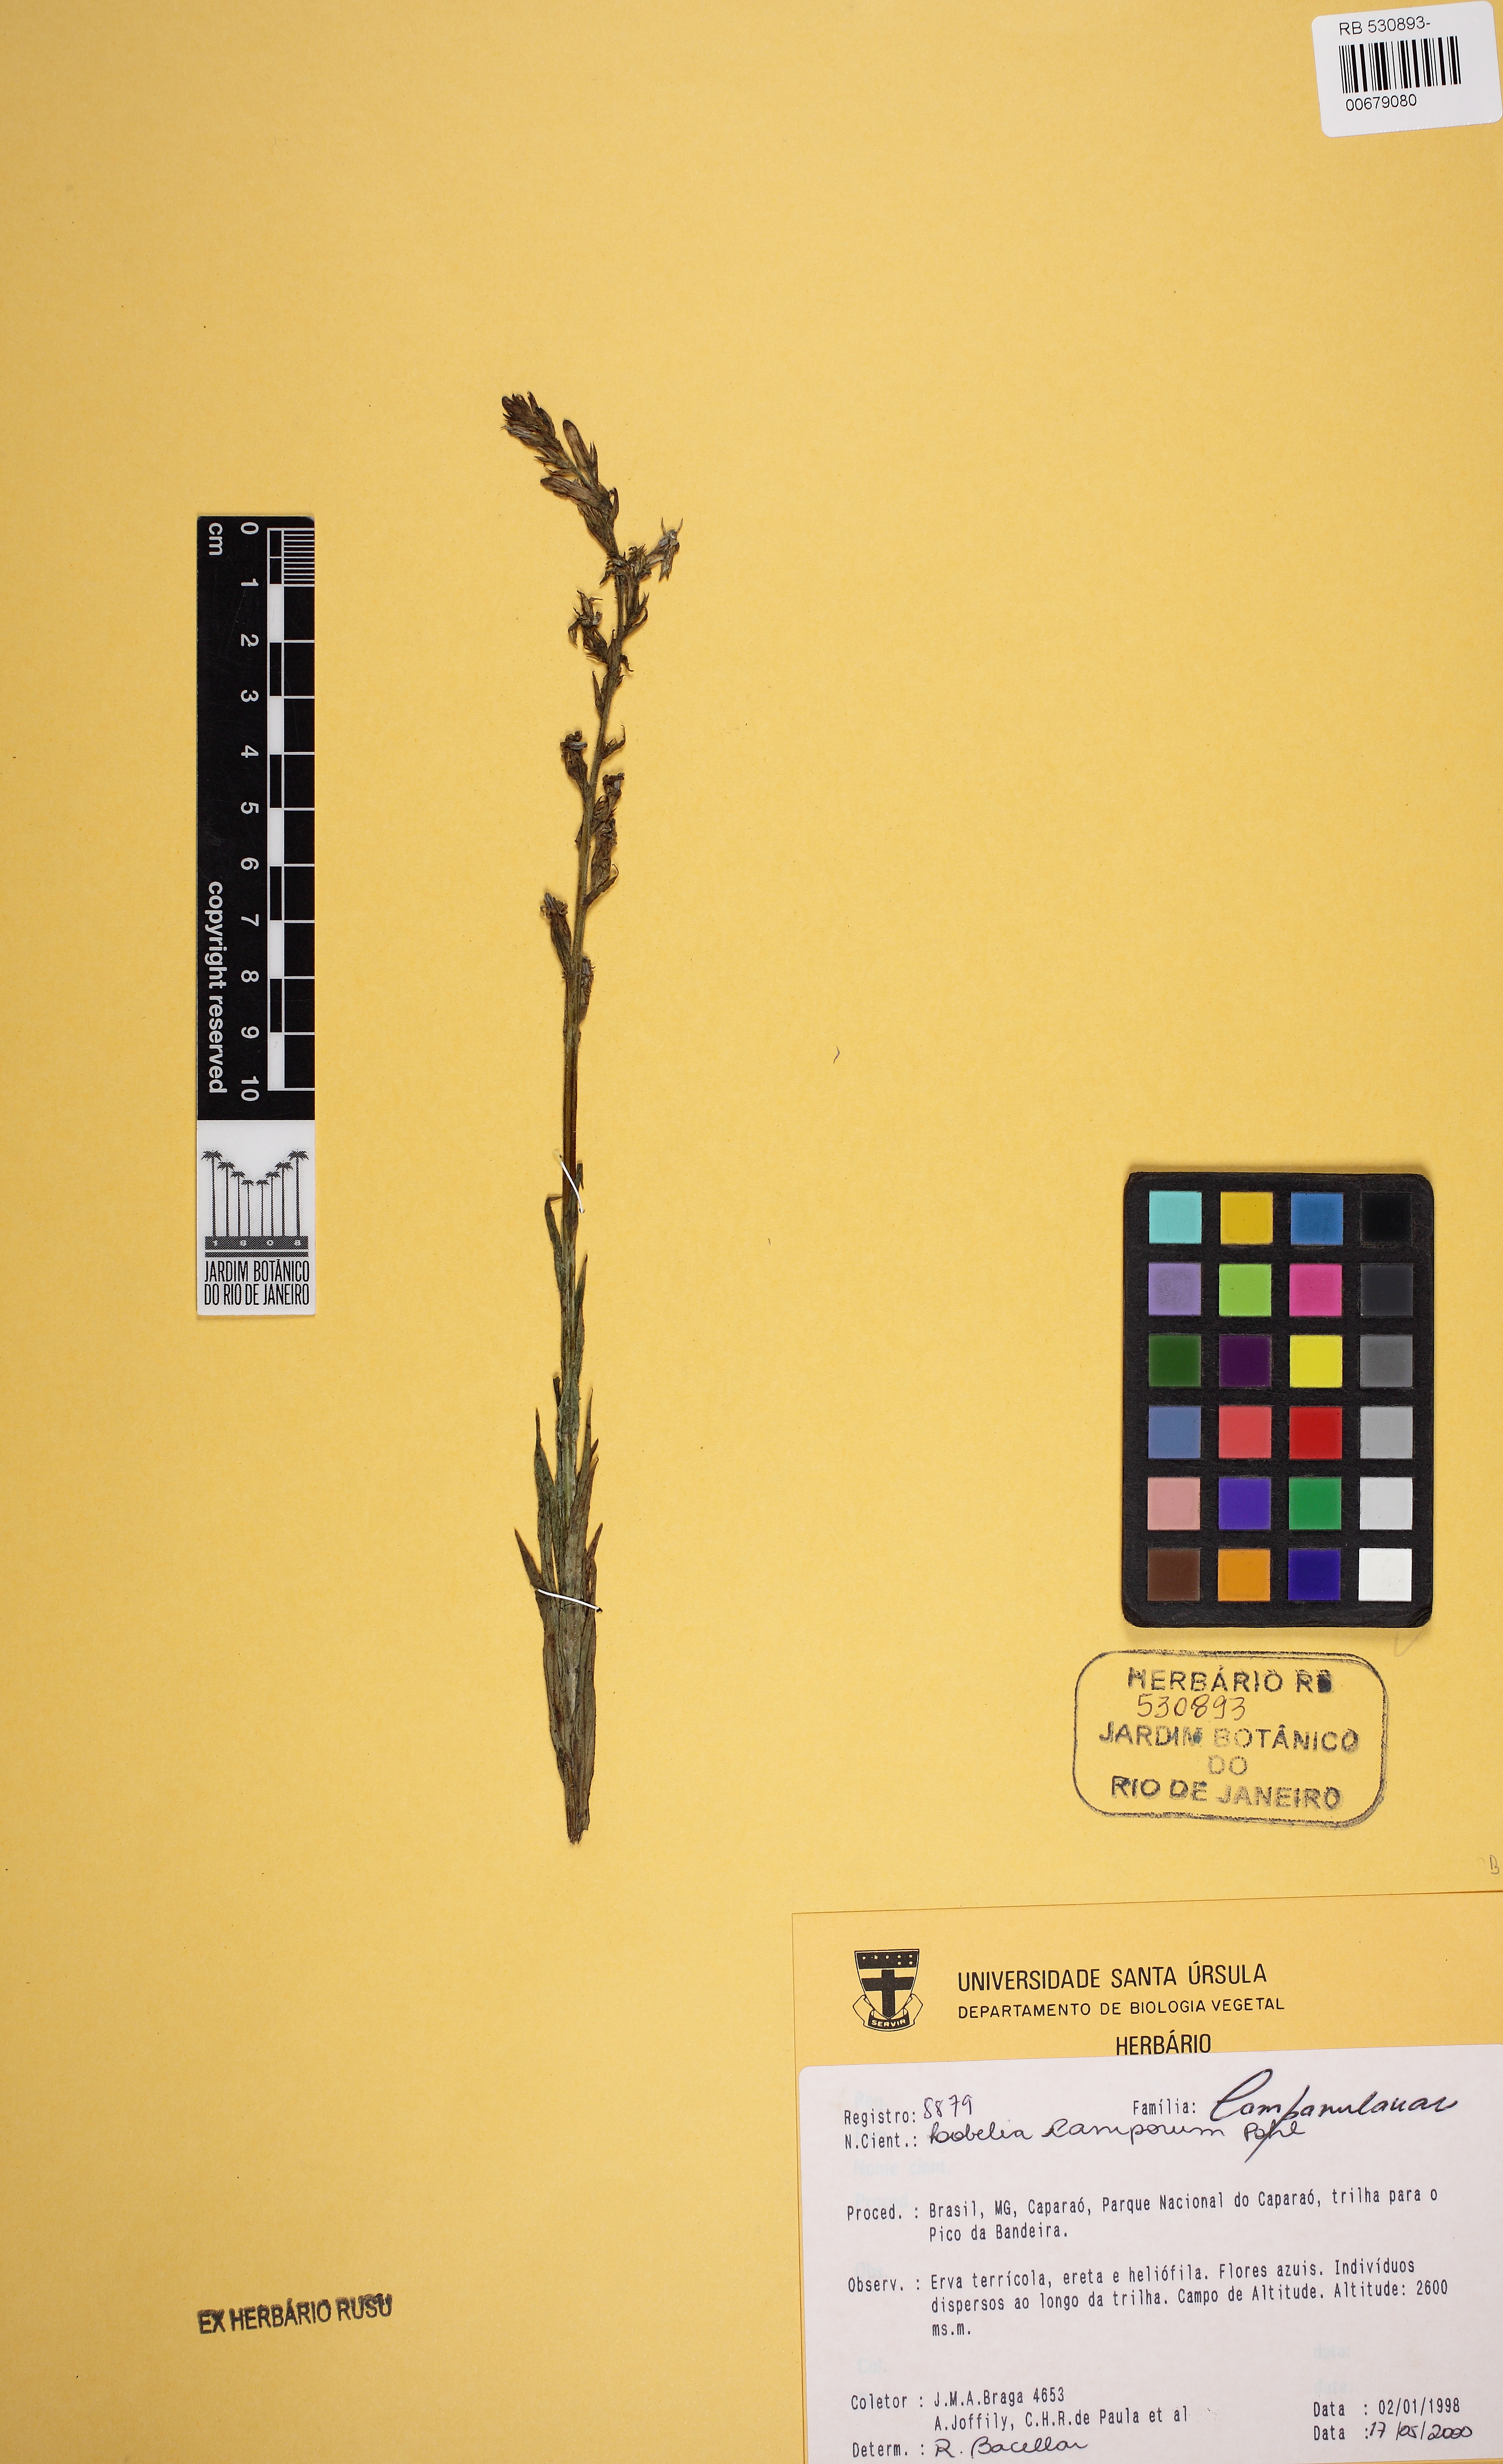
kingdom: Plantae
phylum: Tracheophyta
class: Magnoliopsida
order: Asterales
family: Campanulaceae
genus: Lobelia
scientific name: Lobelia camporum
